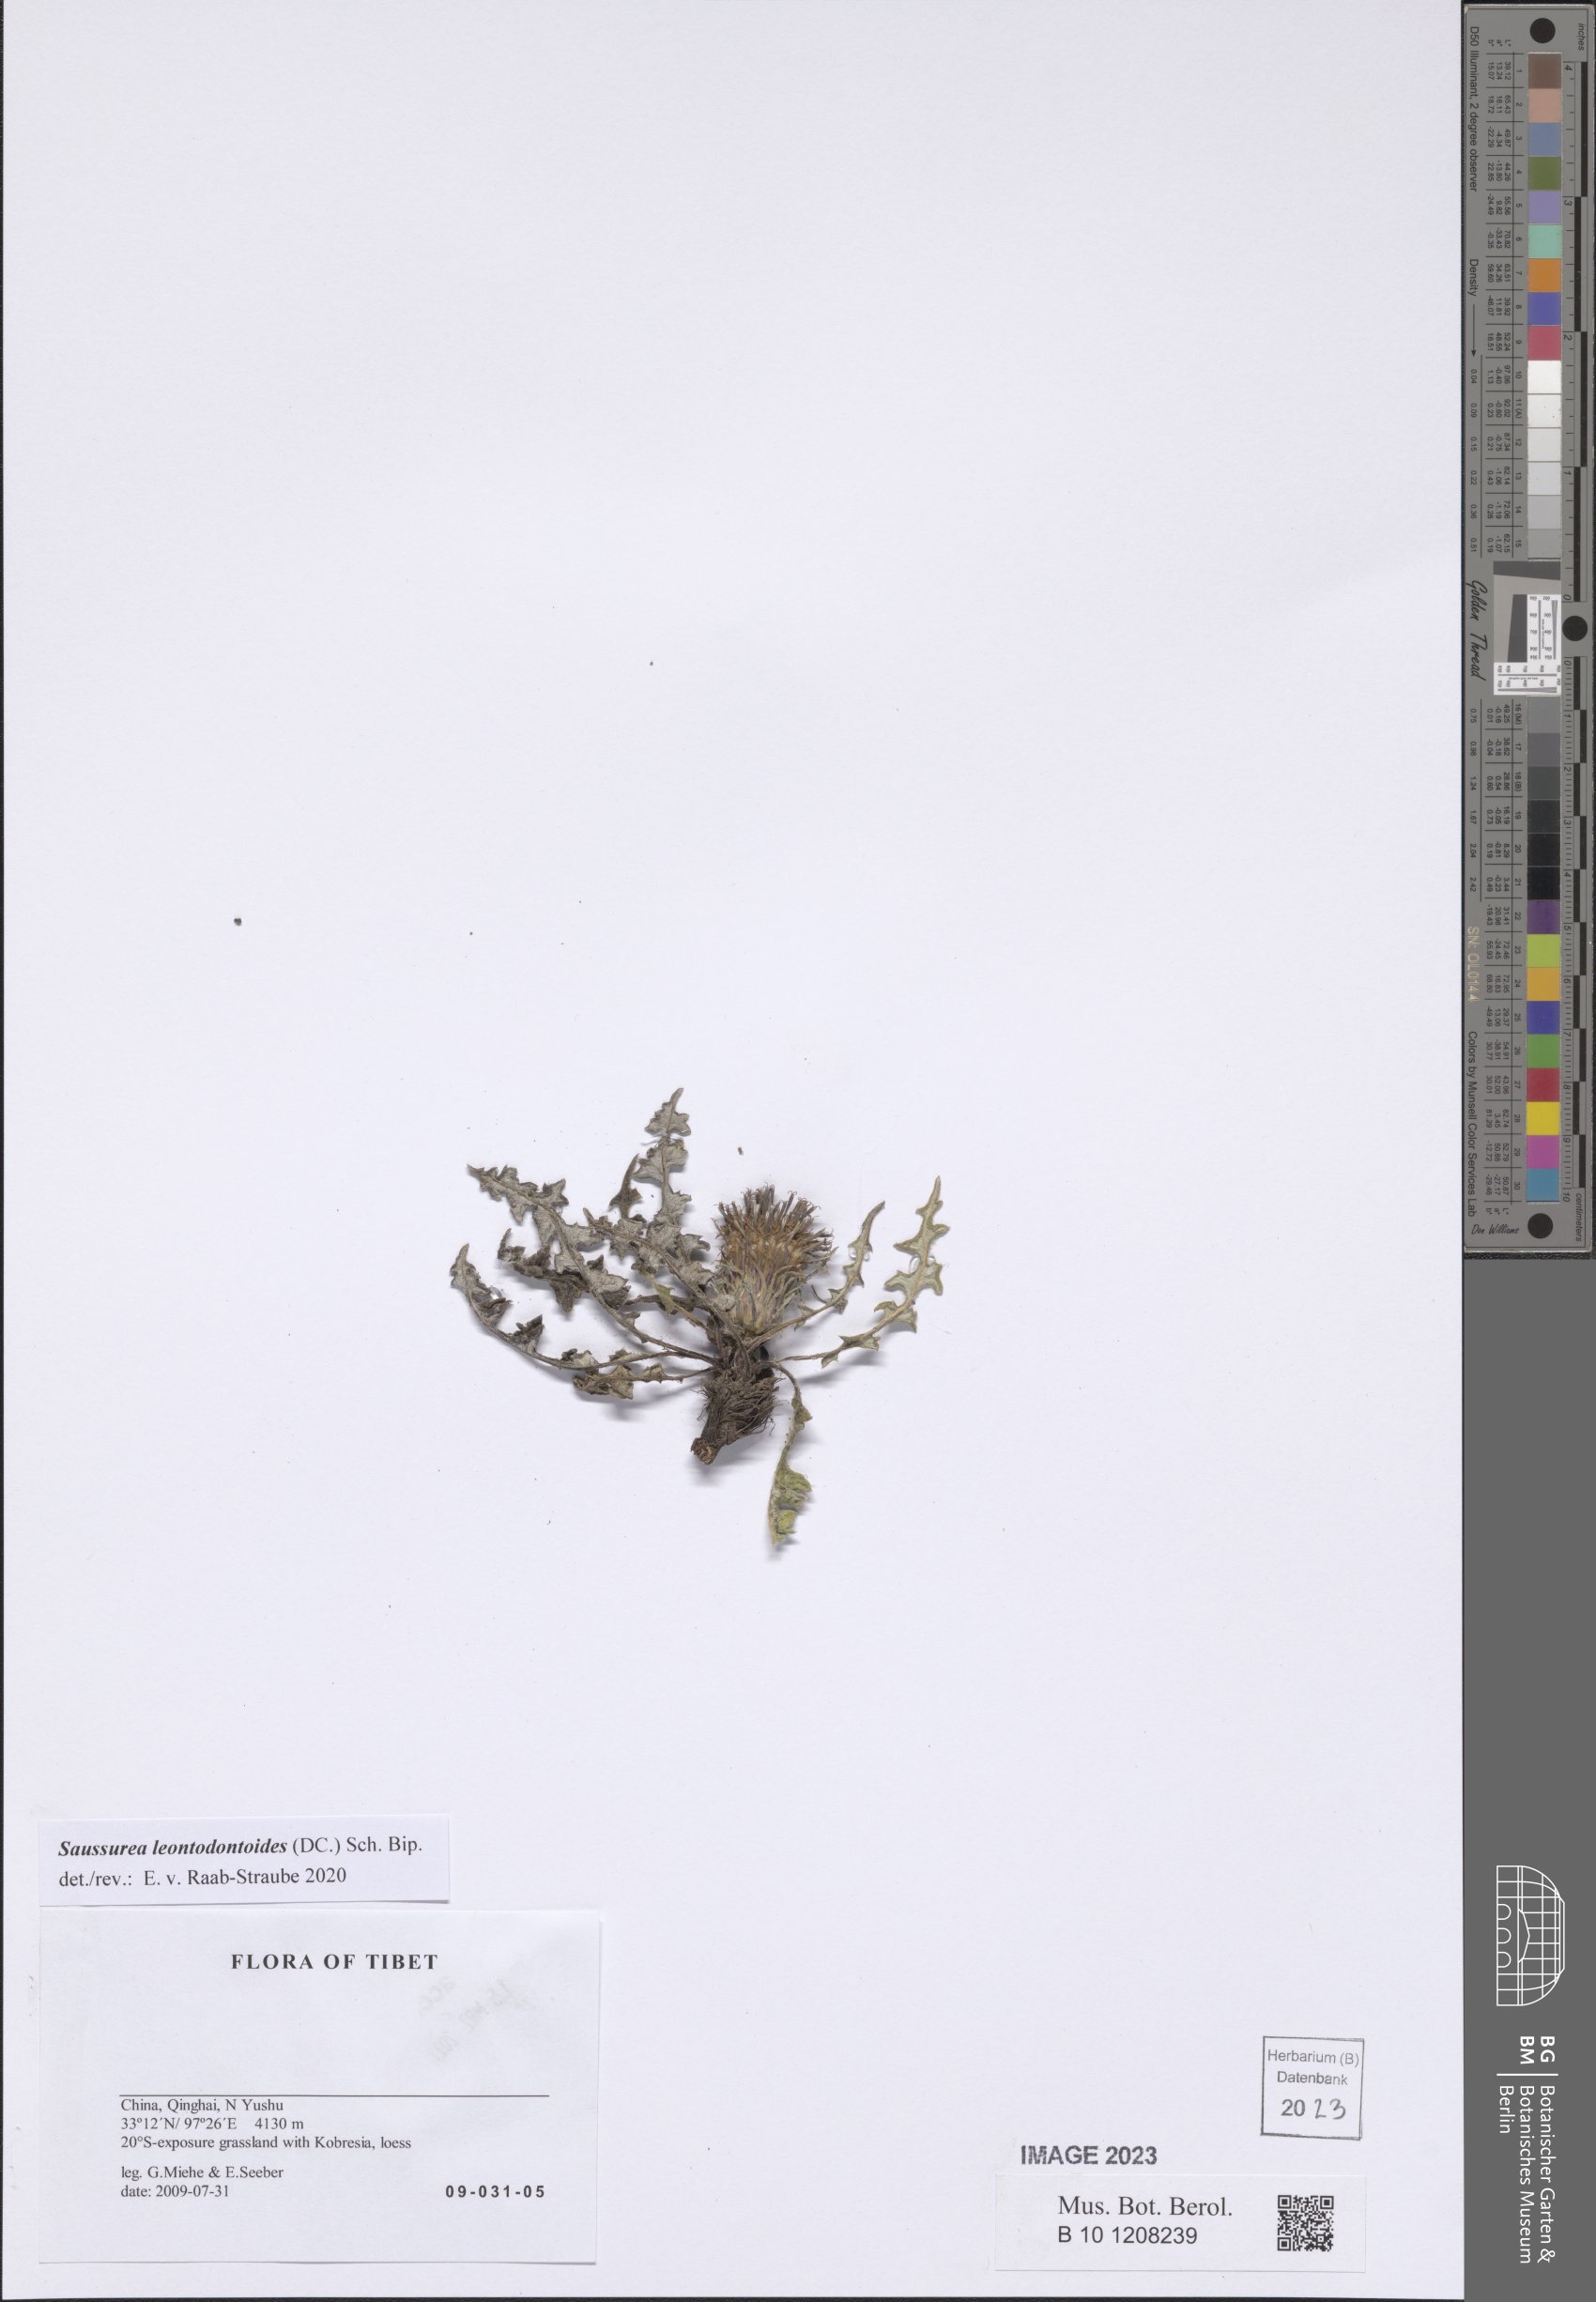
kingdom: Plantae
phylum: Tracheophyta
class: Magnoliopsida
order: Asterales
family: Asteraceae
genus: Saussurea
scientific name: Saussurea leontodontoides
